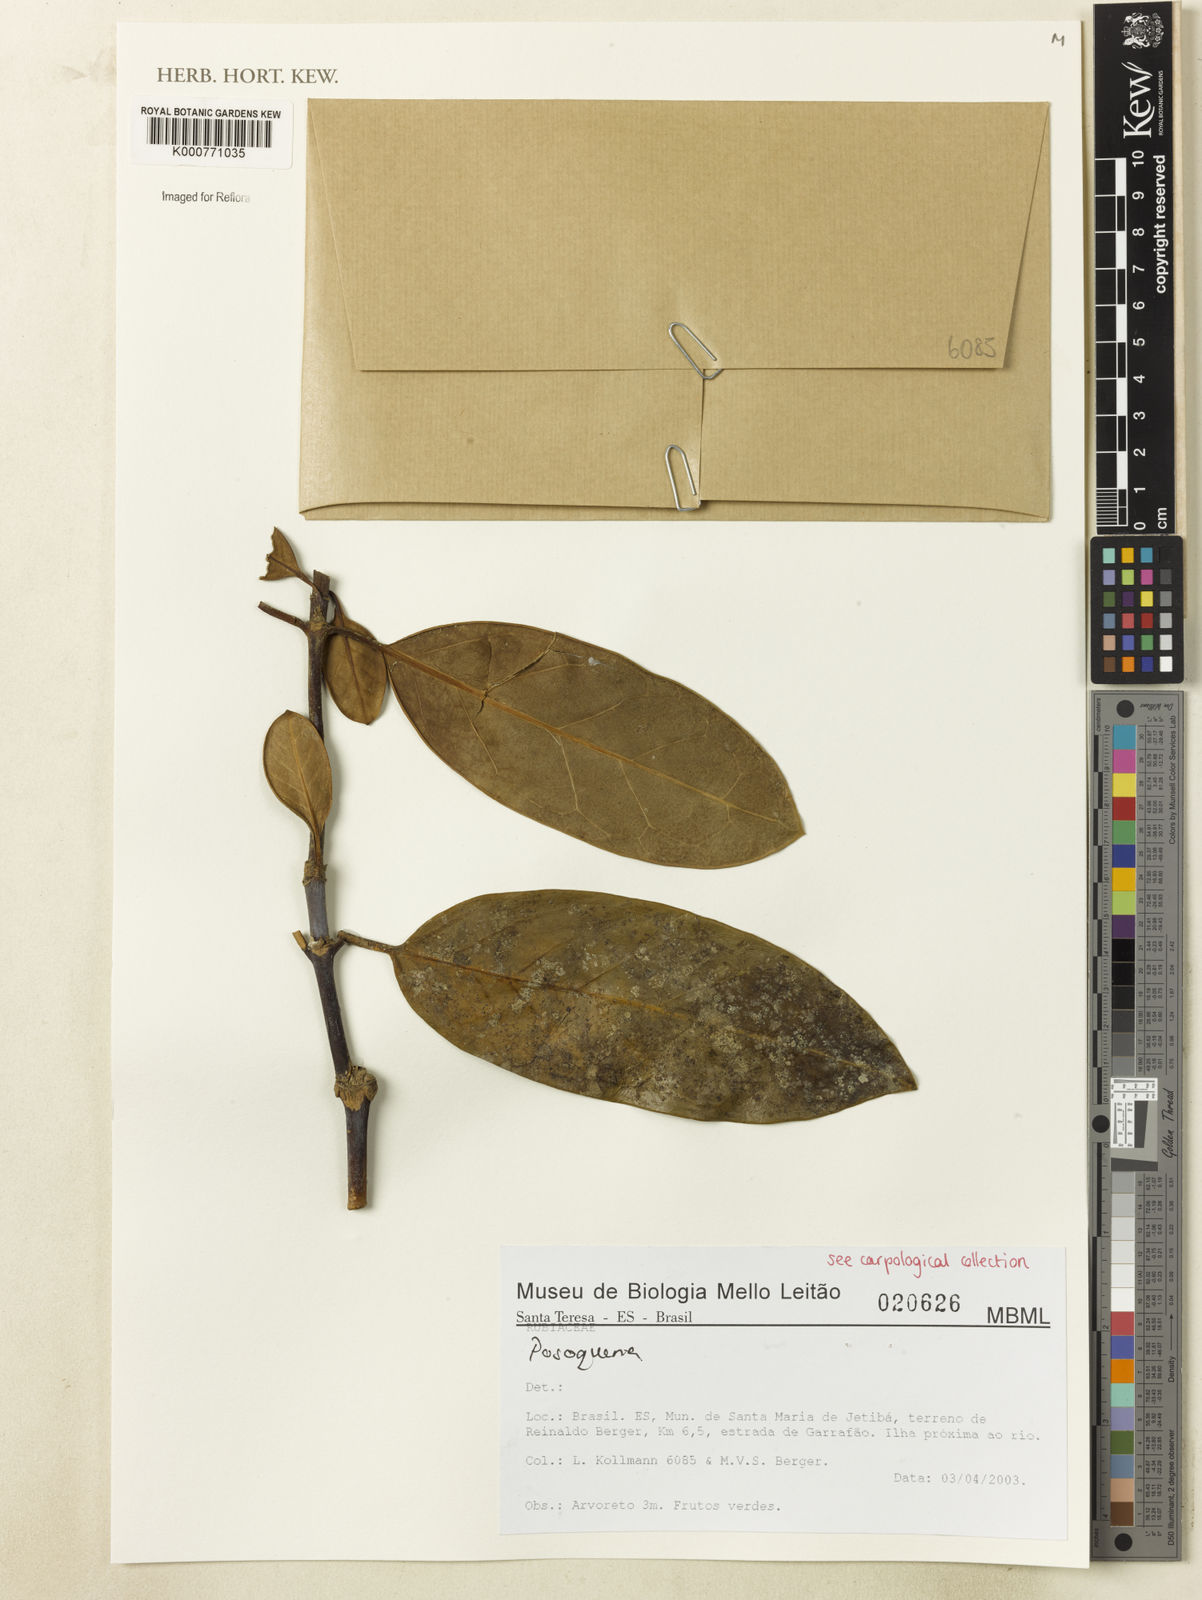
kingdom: Plantae
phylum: Tracheophyta
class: Magnoliopsida
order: Gentianales
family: Rubiaceae
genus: Posoqueria
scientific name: Posoqueria
